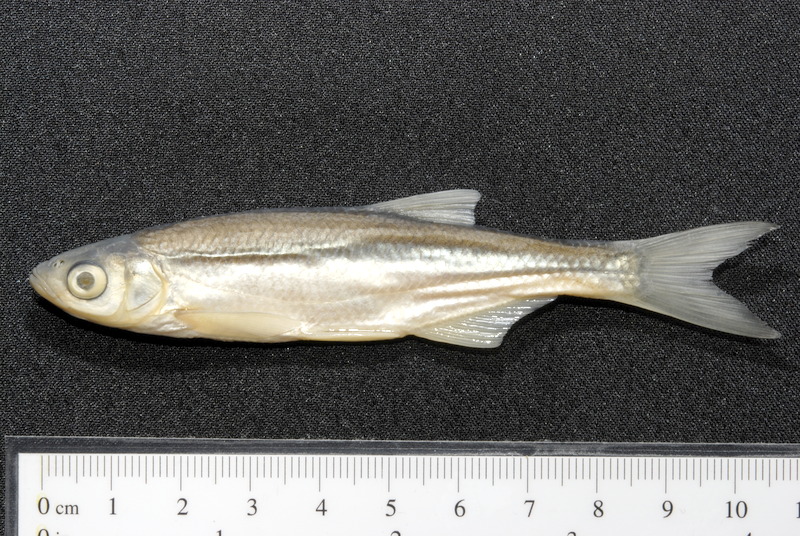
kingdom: Animalia
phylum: Chordata
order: Cypriniformes
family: Cyprinidae
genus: Alburnus
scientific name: Alburnus alburnus
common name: Bleak
